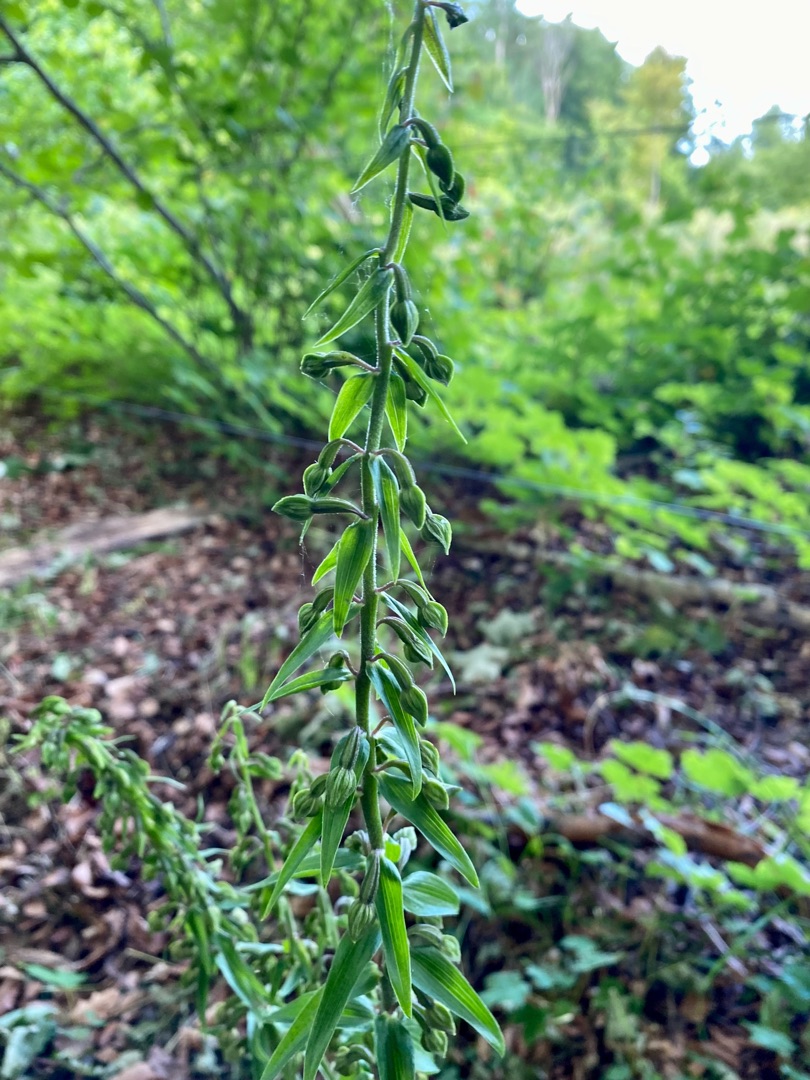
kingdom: Plantae
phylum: Tracheophyta
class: Liliopsida
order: Asparagales
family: Orchidaceae
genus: Epipactis
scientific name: Epipactis helleborine
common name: Skov-hullæbe
